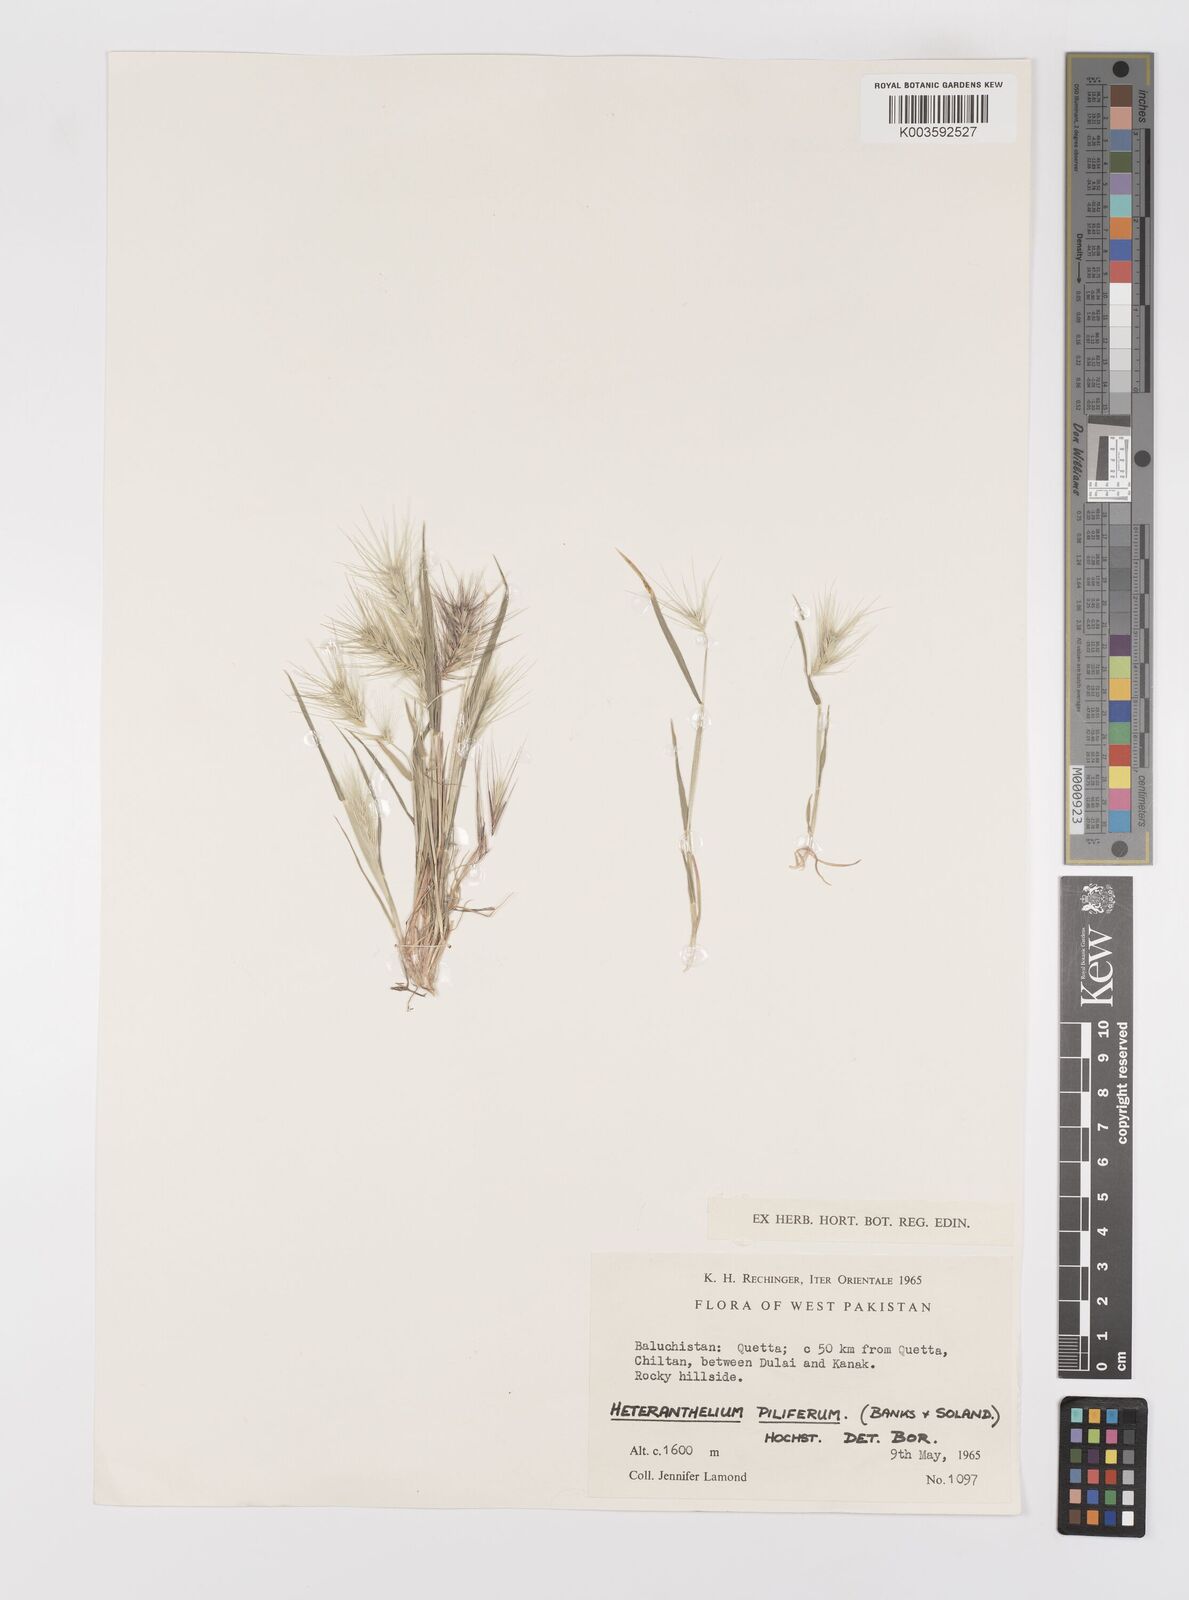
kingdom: Plantae
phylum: Tracheophyta
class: Liliopsida
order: Poales
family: Poaceae
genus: Heteranthelium
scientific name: Heteranthelium piliferum
